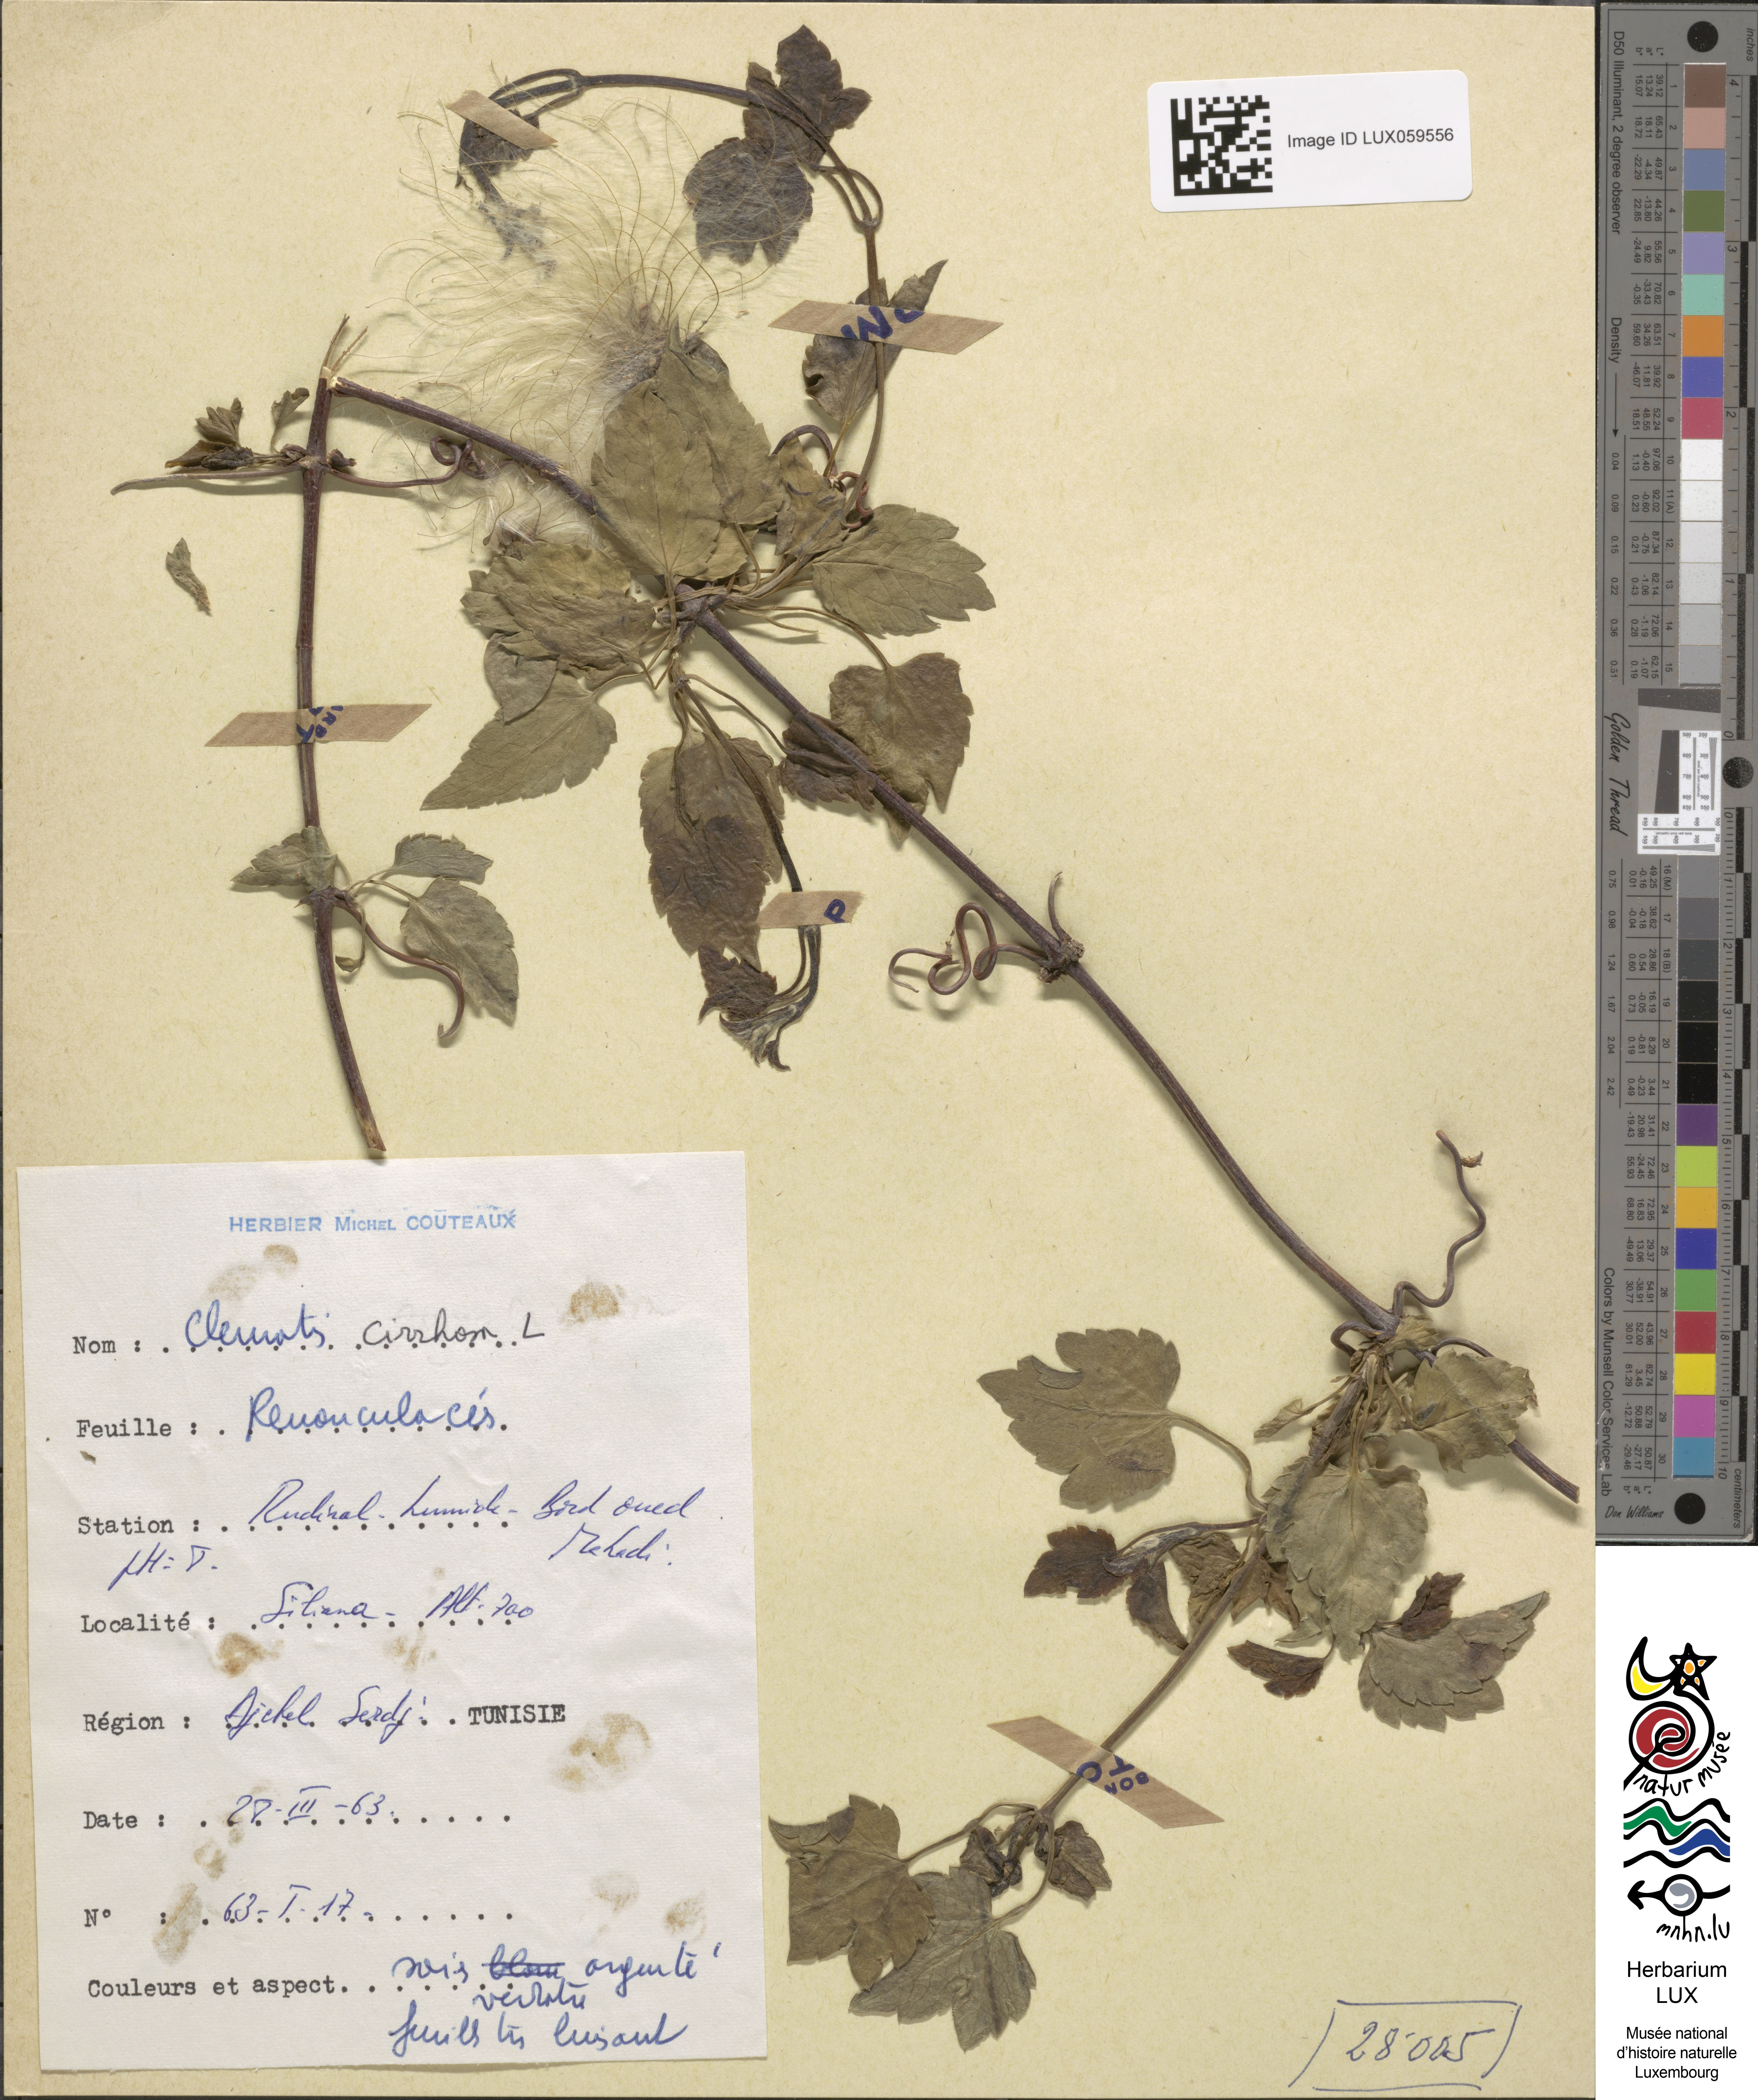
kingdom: Plantae
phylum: Tracheophyta
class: Magnoliopsida
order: Ranunculales
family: Ranunculaceae
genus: Clematis
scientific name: Clematis cirrhosa
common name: Early virgin's-bower
